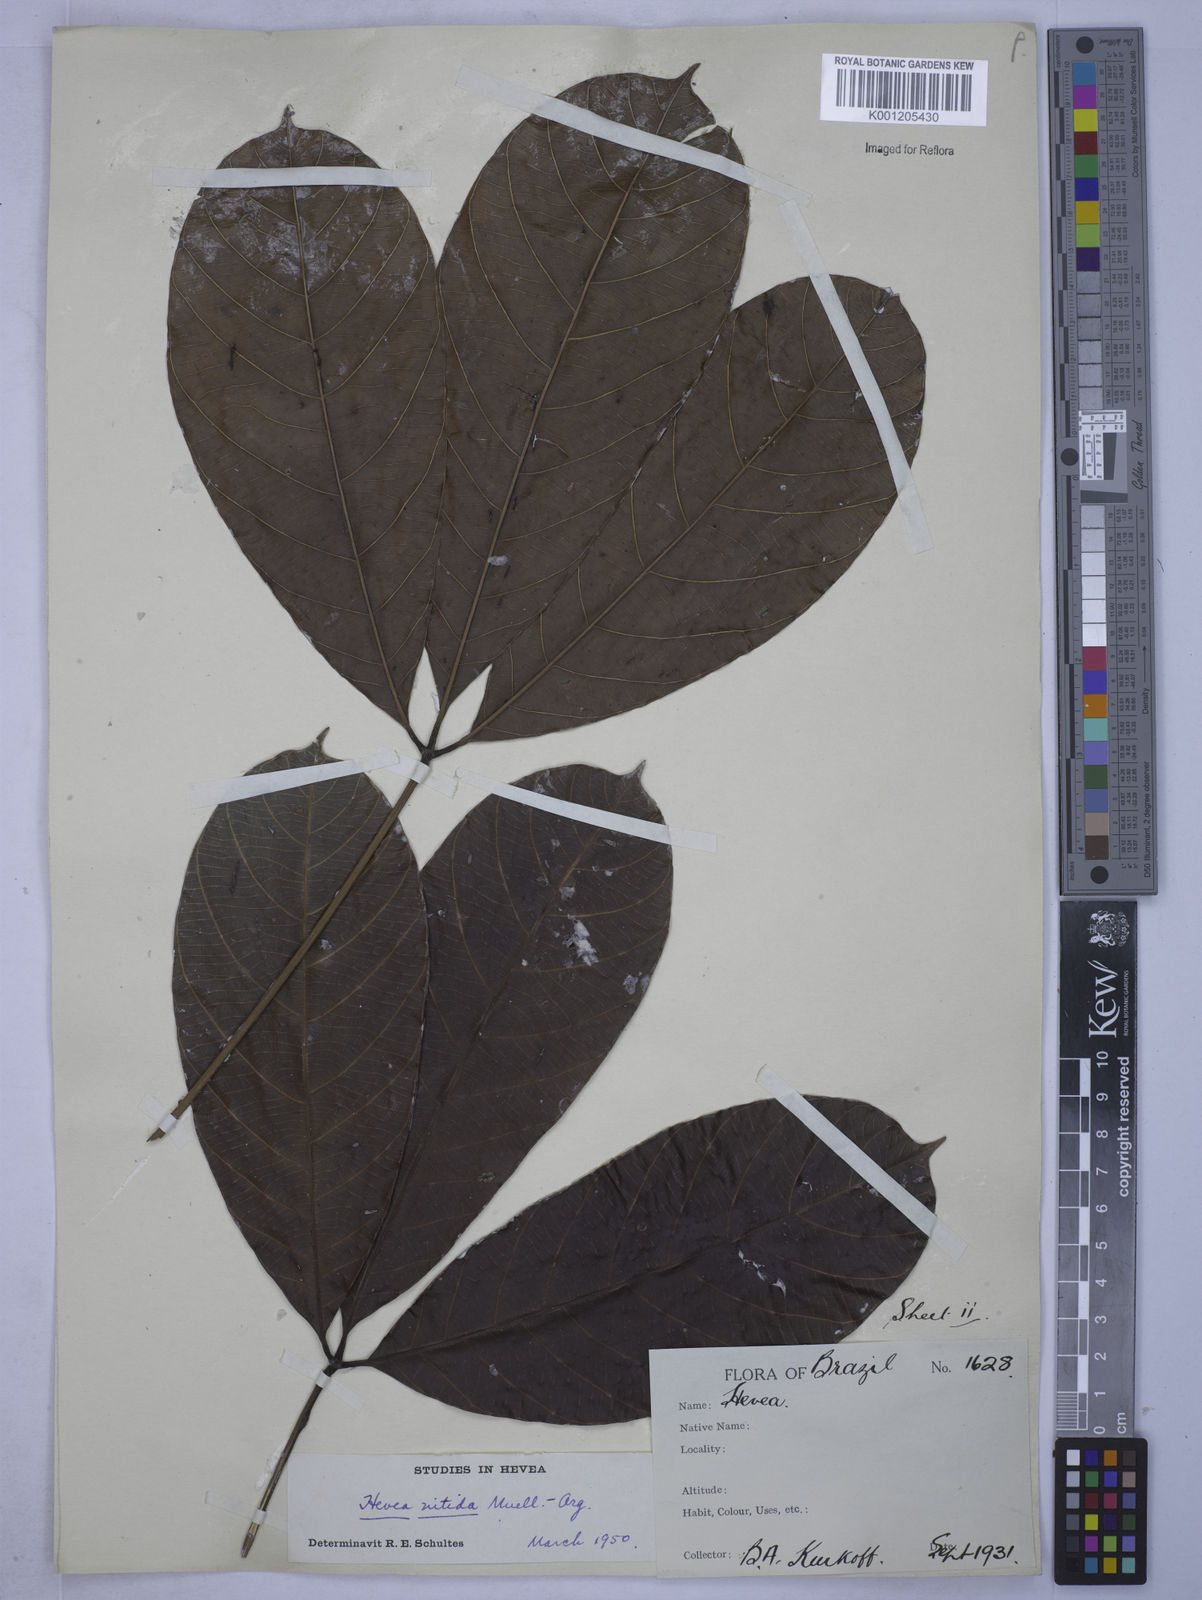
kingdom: Plantae
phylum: Tracheophyta
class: Magnoliopsida
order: Malpighiales
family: Euphorbiaceae
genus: Hevea
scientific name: Hevea
